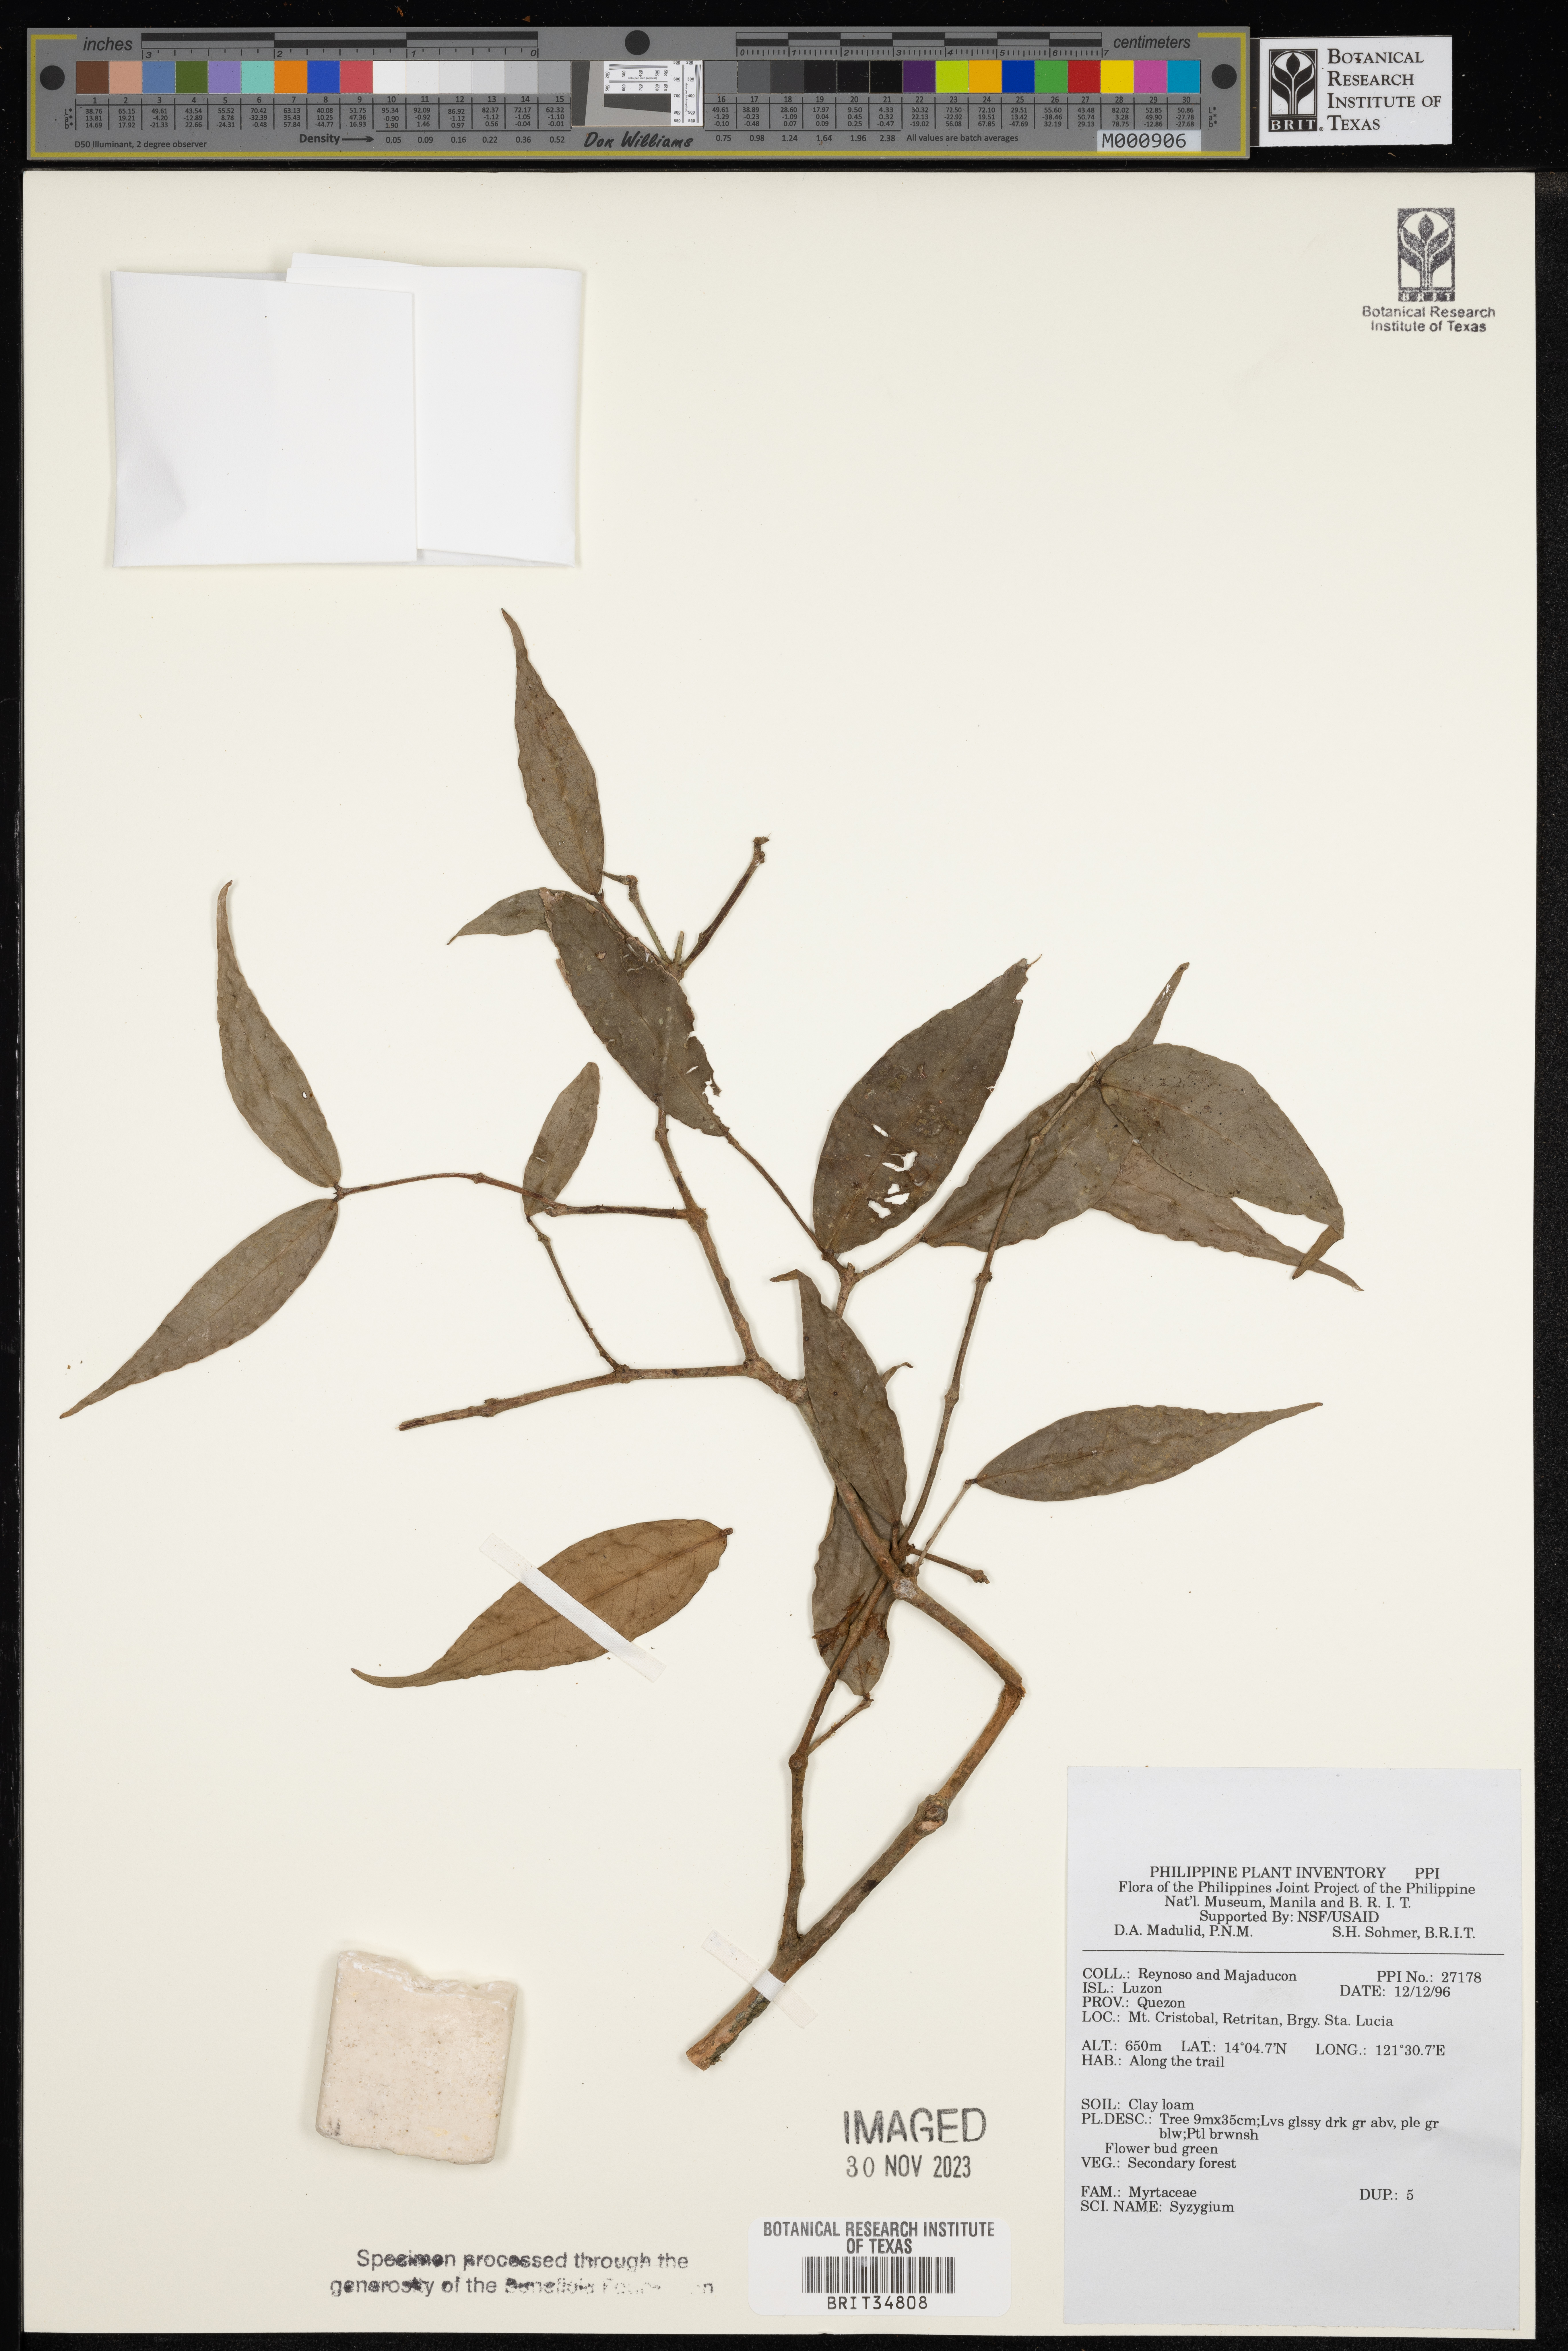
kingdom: Plantae
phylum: Tracheophyta
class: Magnoliopsida
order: Myrtales
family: Myrtaceae
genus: Syzygium
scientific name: Syzygium
